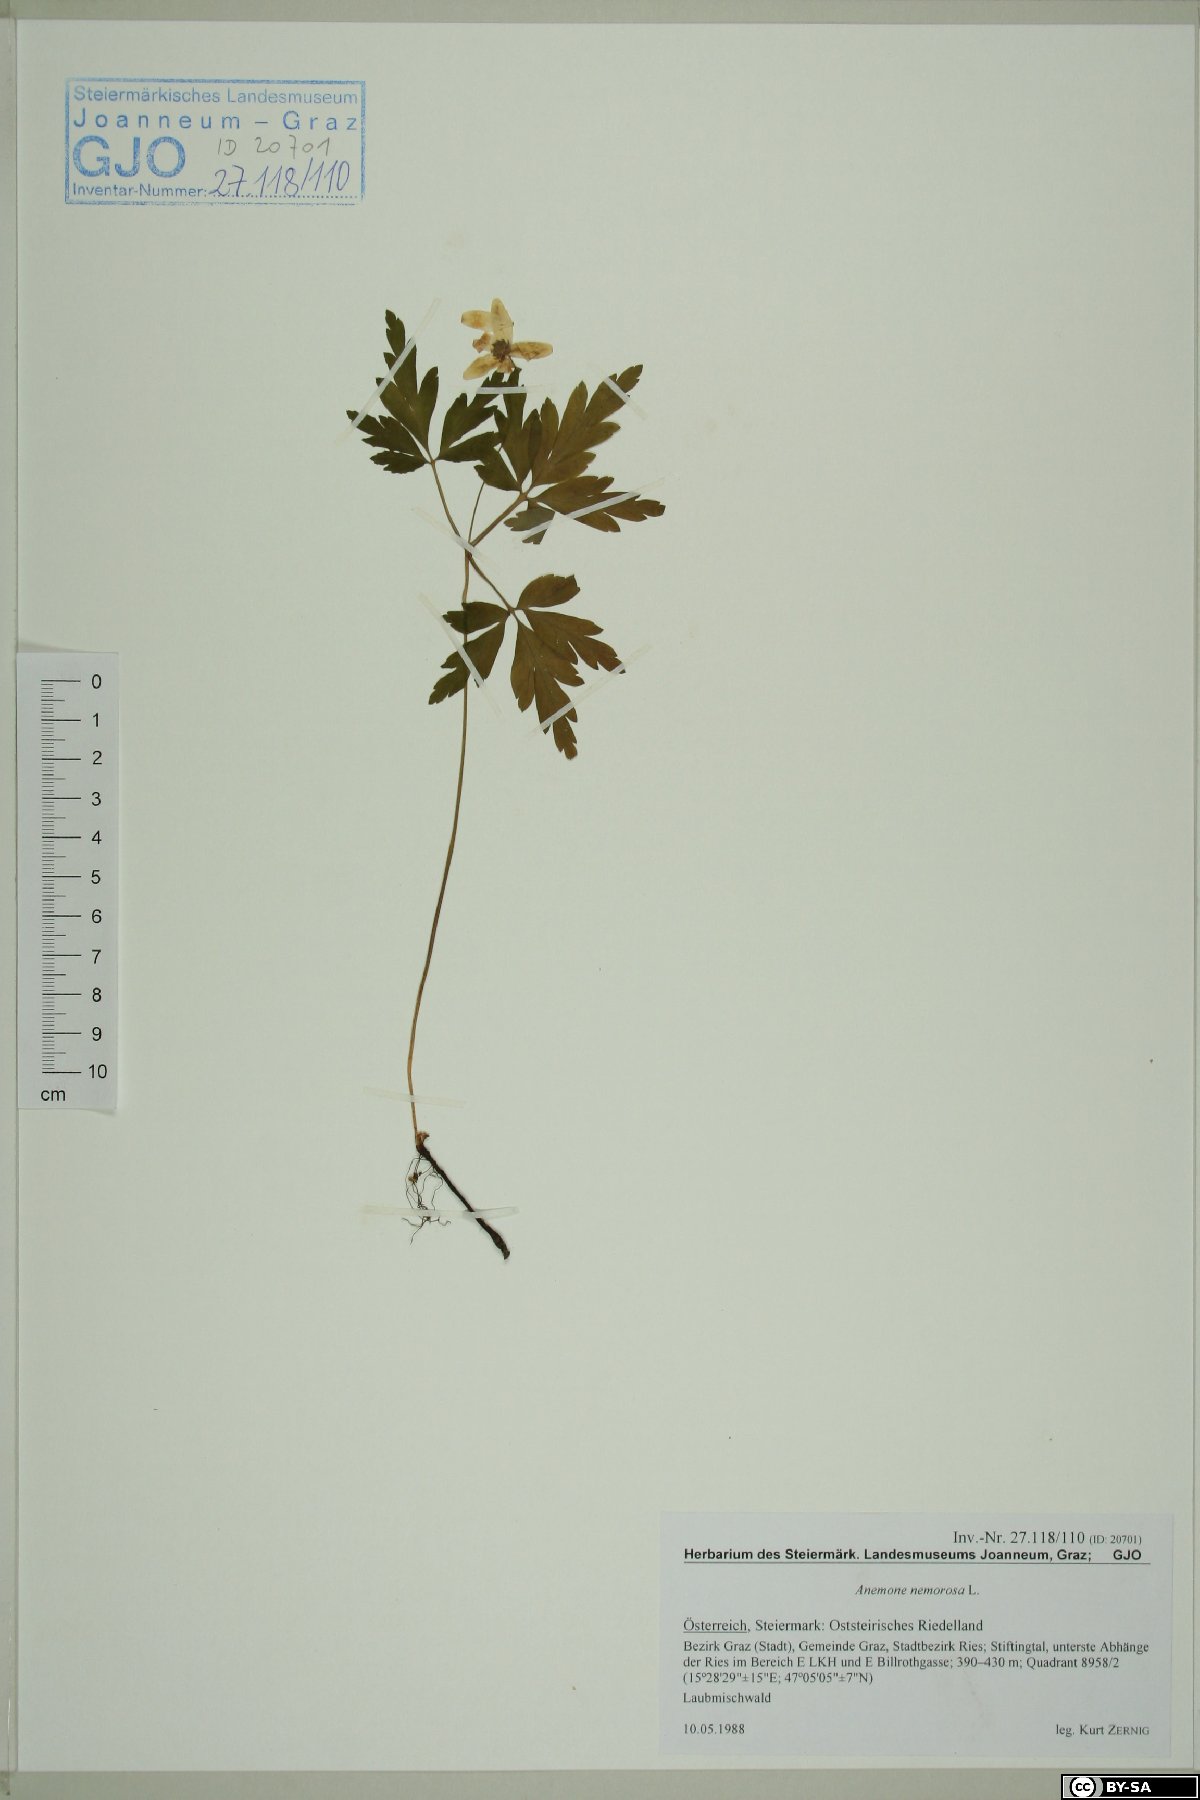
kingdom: Plantae
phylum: Tracheophyta
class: Magnoliopsida
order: Ranunculales
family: Ranunculaceae
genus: Anemone
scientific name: Anemone nemorosa
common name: Wood anemone
